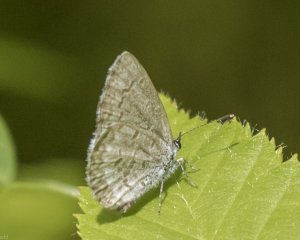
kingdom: Animalia
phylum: Arthropoda
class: Insecta
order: Lepidoptera
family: Lycaenidae
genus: Celastrina
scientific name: Celastrina serotina
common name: Cherry Gall Azure
